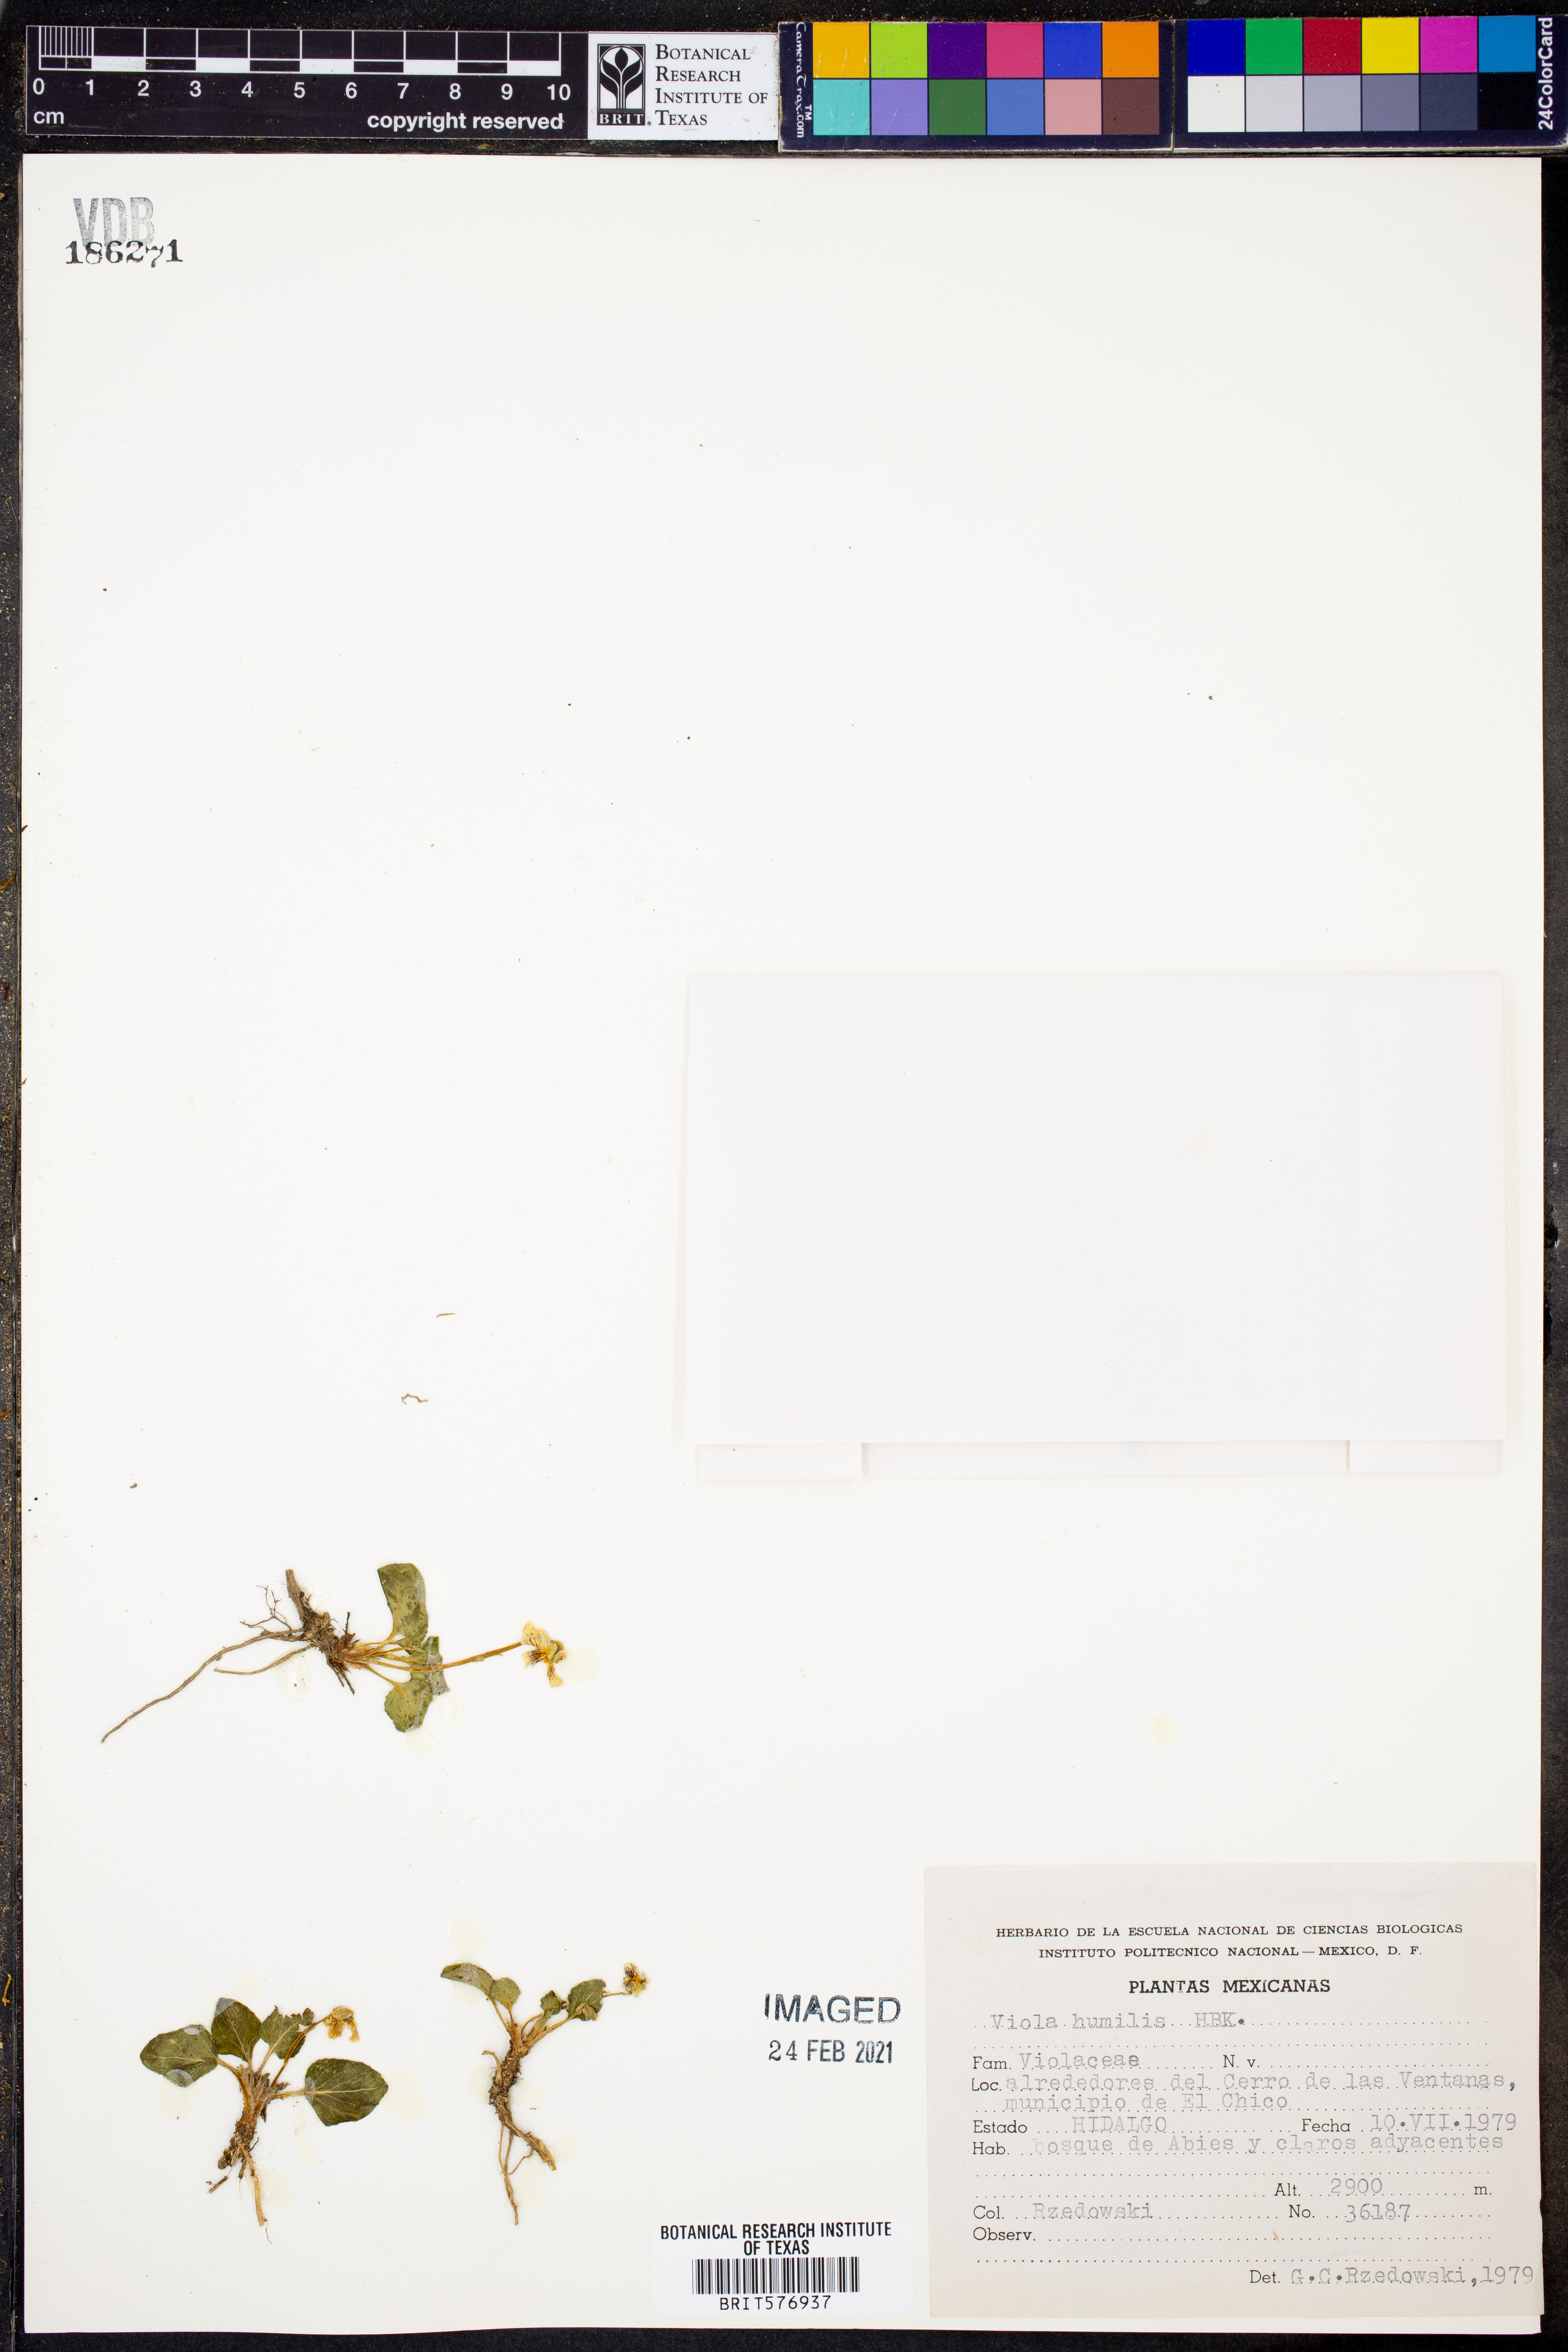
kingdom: Plantae
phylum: Tracheophyta
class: Magnoliopsida
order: Malpighiales
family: Violaceae
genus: Viola
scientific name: Viola humilis
